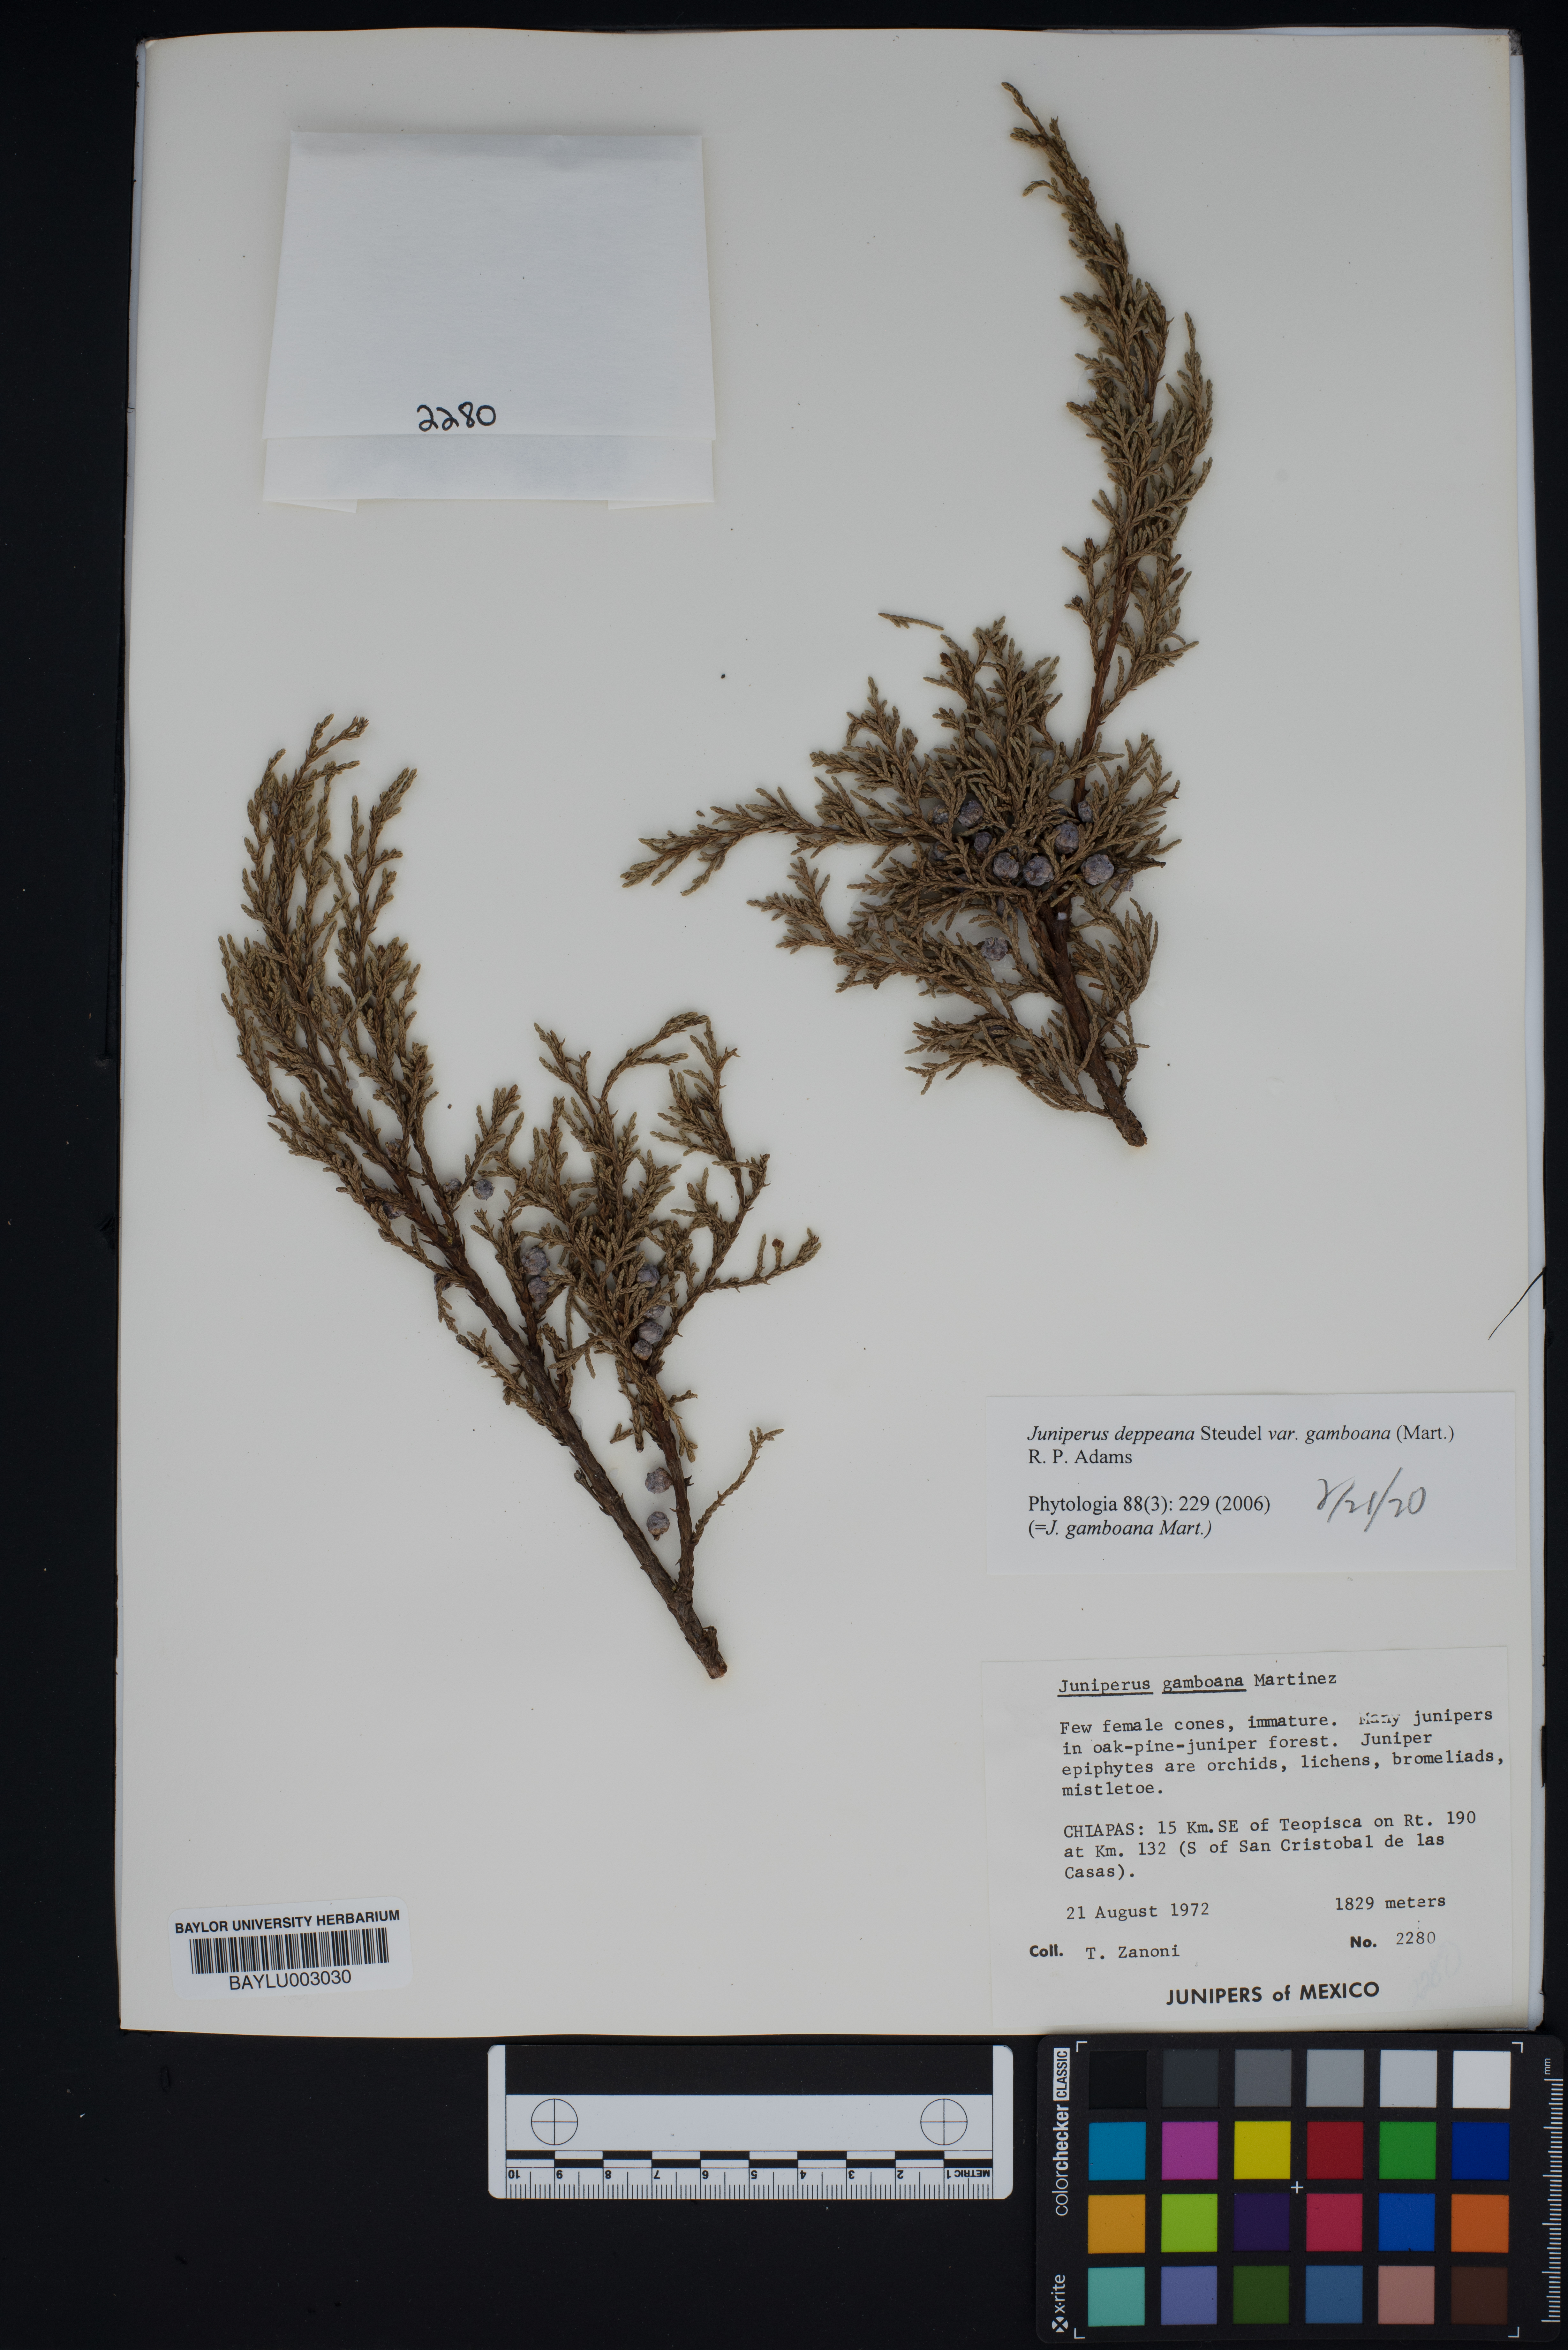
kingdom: Plantae
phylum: Tracheophyta
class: Pinopsida
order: Pinales
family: Cupressaceae
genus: Juniperus
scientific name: Juniperus gamboana
